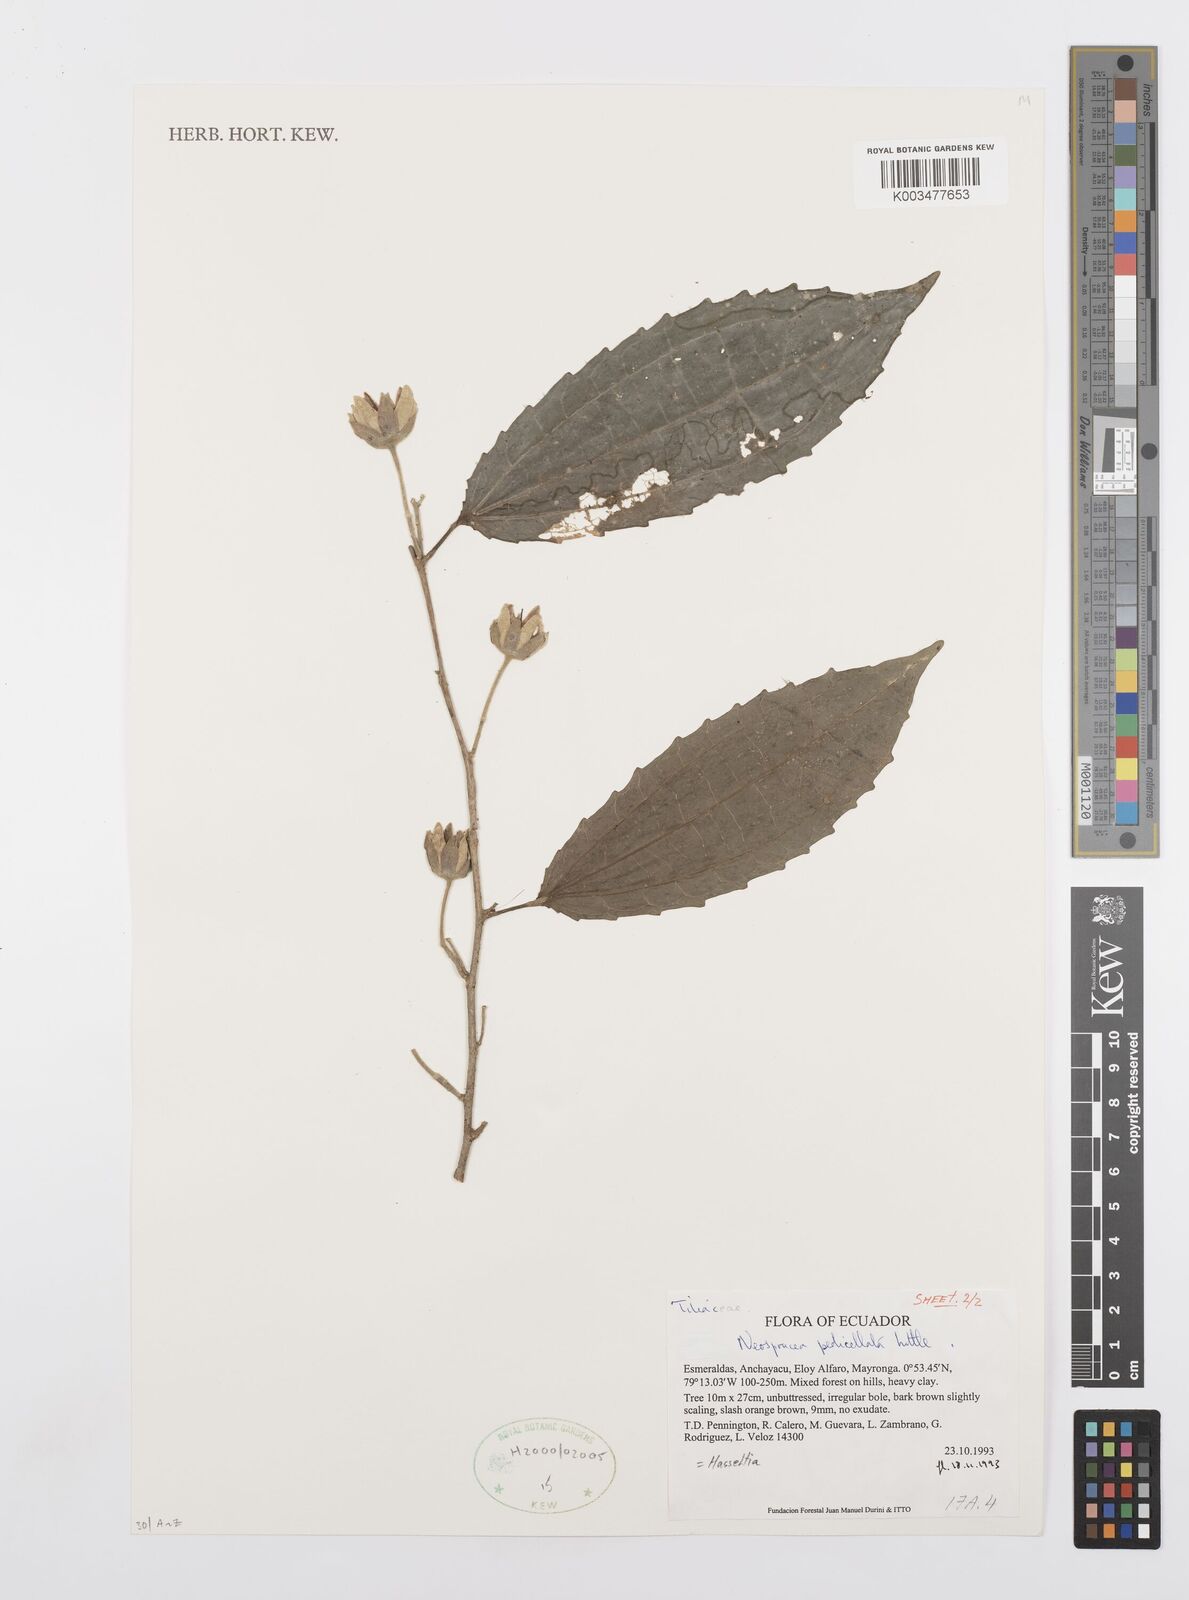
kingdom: Plantae
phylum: Tracheophyta
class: Magnoliopsida
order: Malpighiales
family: Salicaceae
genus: Neosprucea
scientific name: Neosprucea pedicellata
